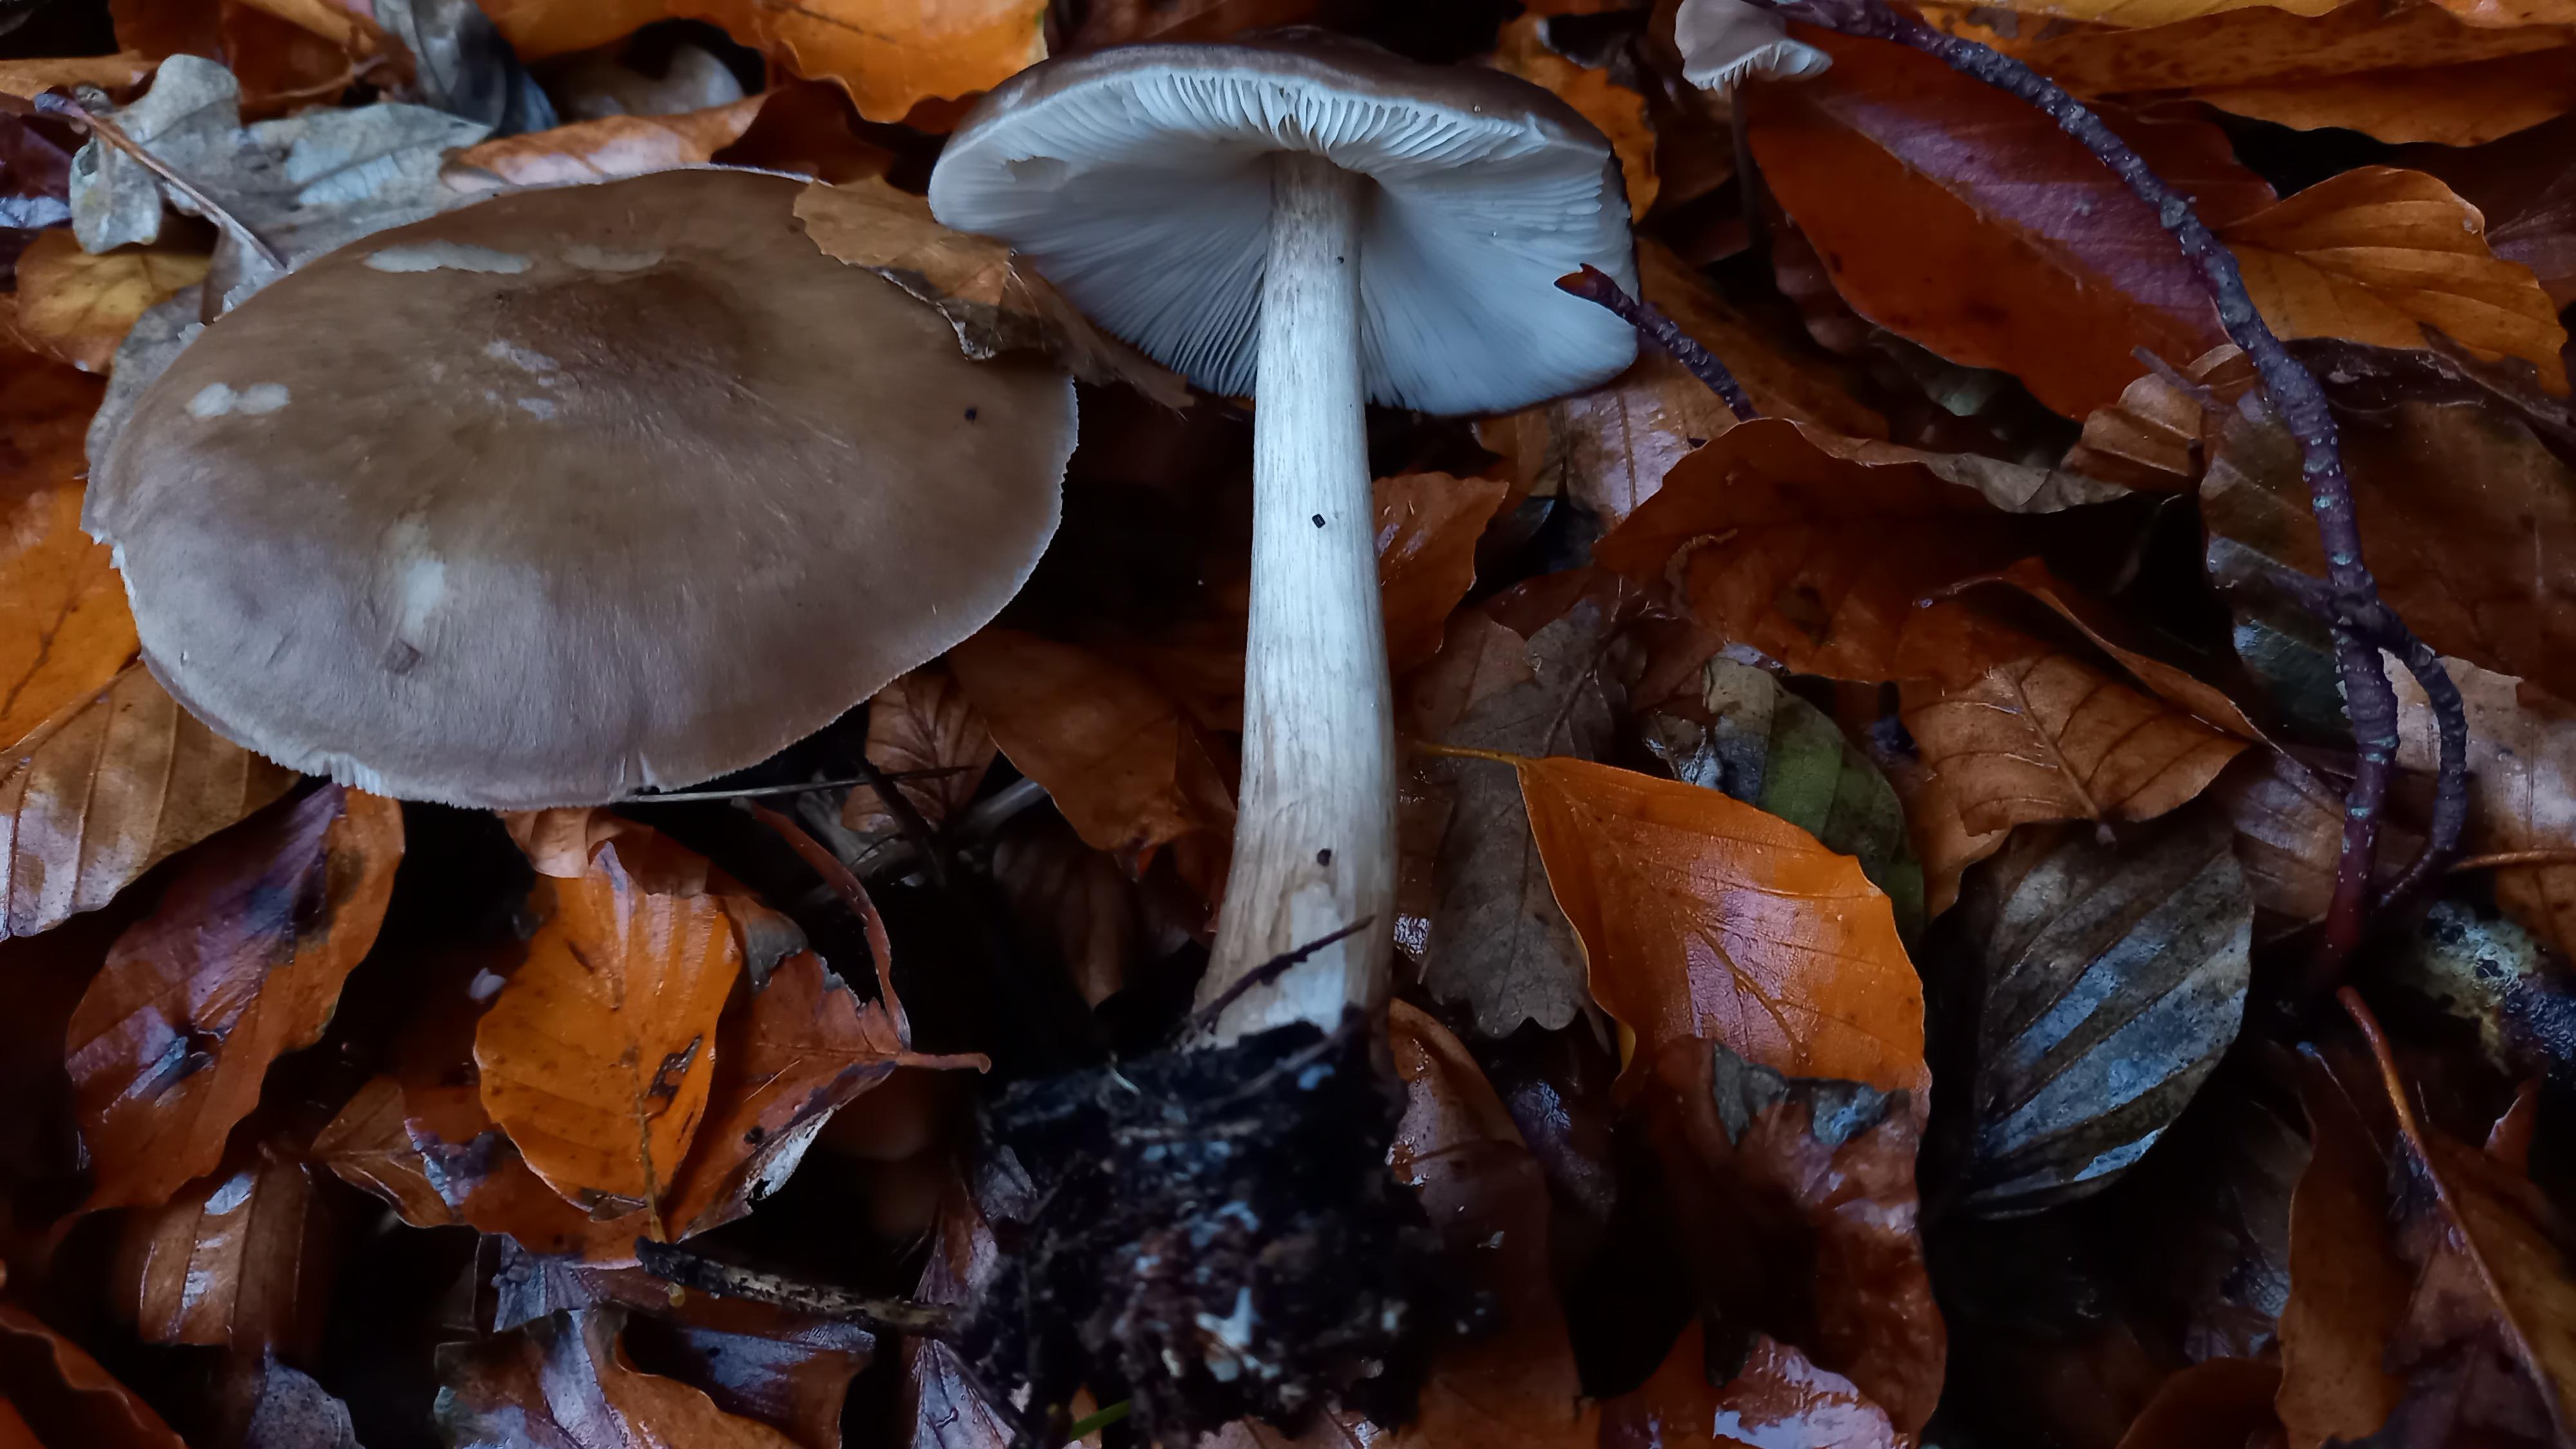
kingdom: Fungi
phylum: Basidiomycota
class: Agaricomycetes
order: Agaricales
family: Pluteaceae
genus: Pluteus
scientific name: Pluteus cervinus
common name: sodfarvet skærmhat
